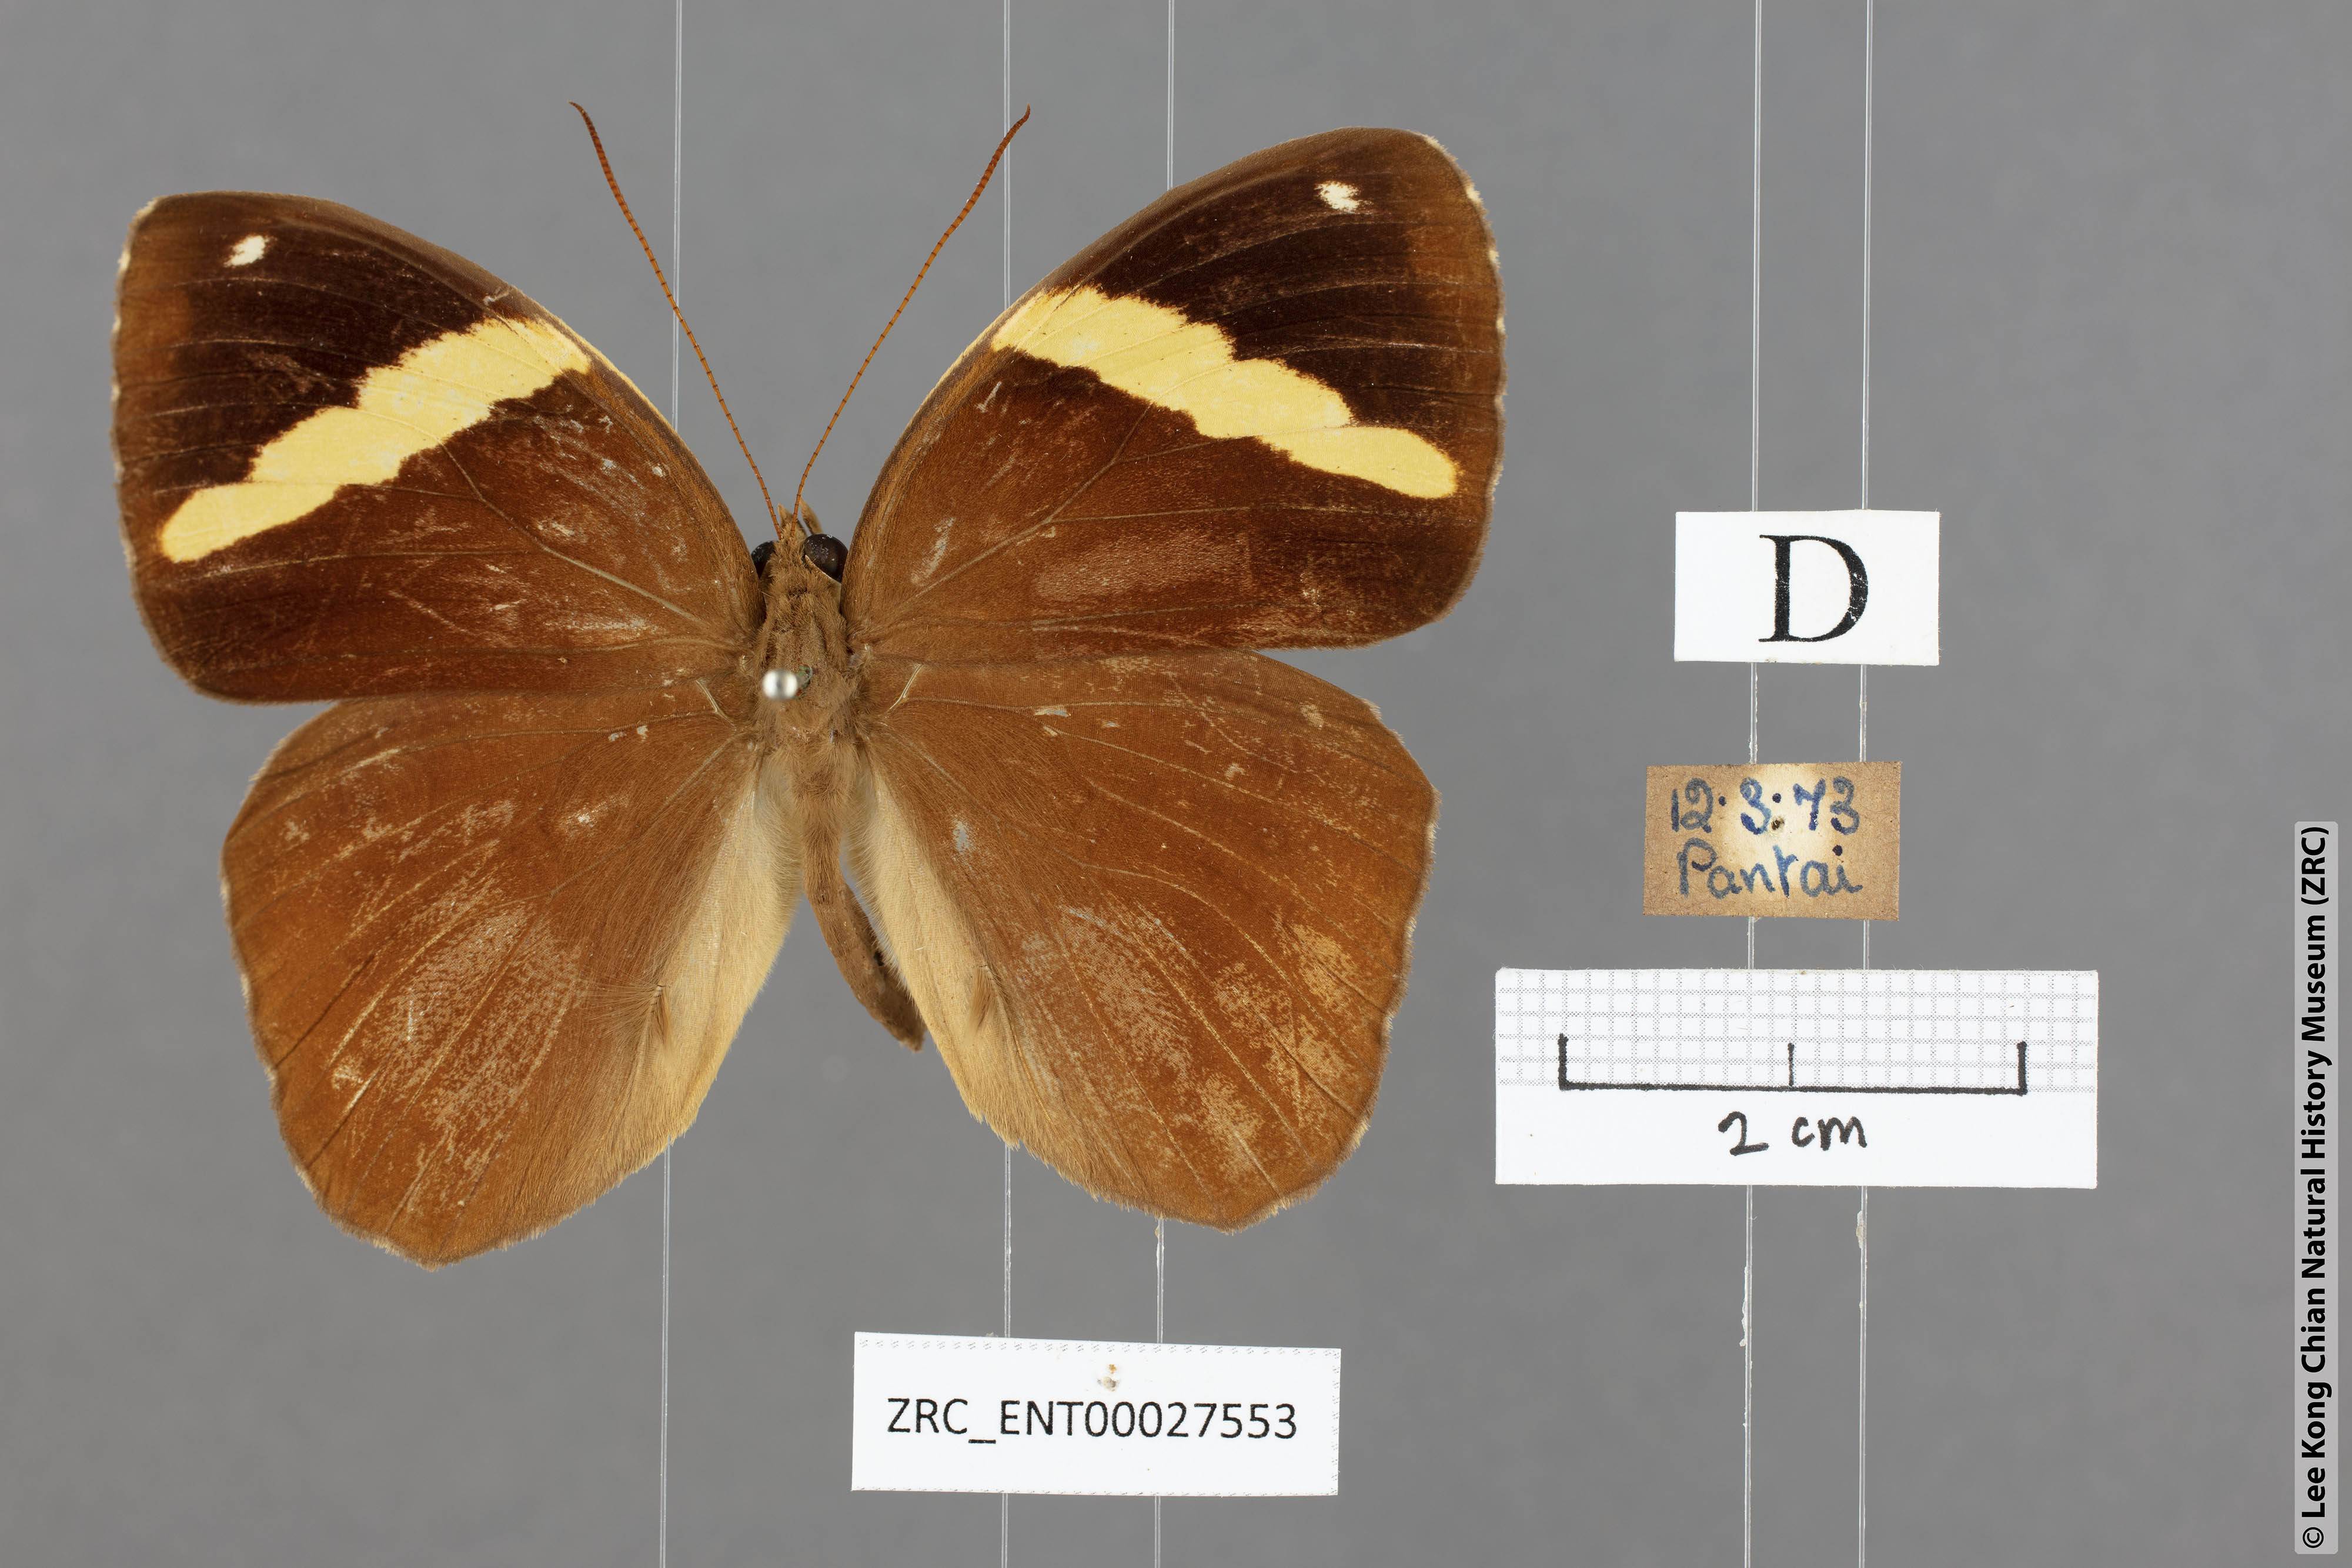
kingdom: Animalia
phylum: Arthropoda
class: Insecta
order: Lepidoptera
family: Nymphalidae
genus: Xanthotaenia
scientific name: Xanthotaenia busiris
